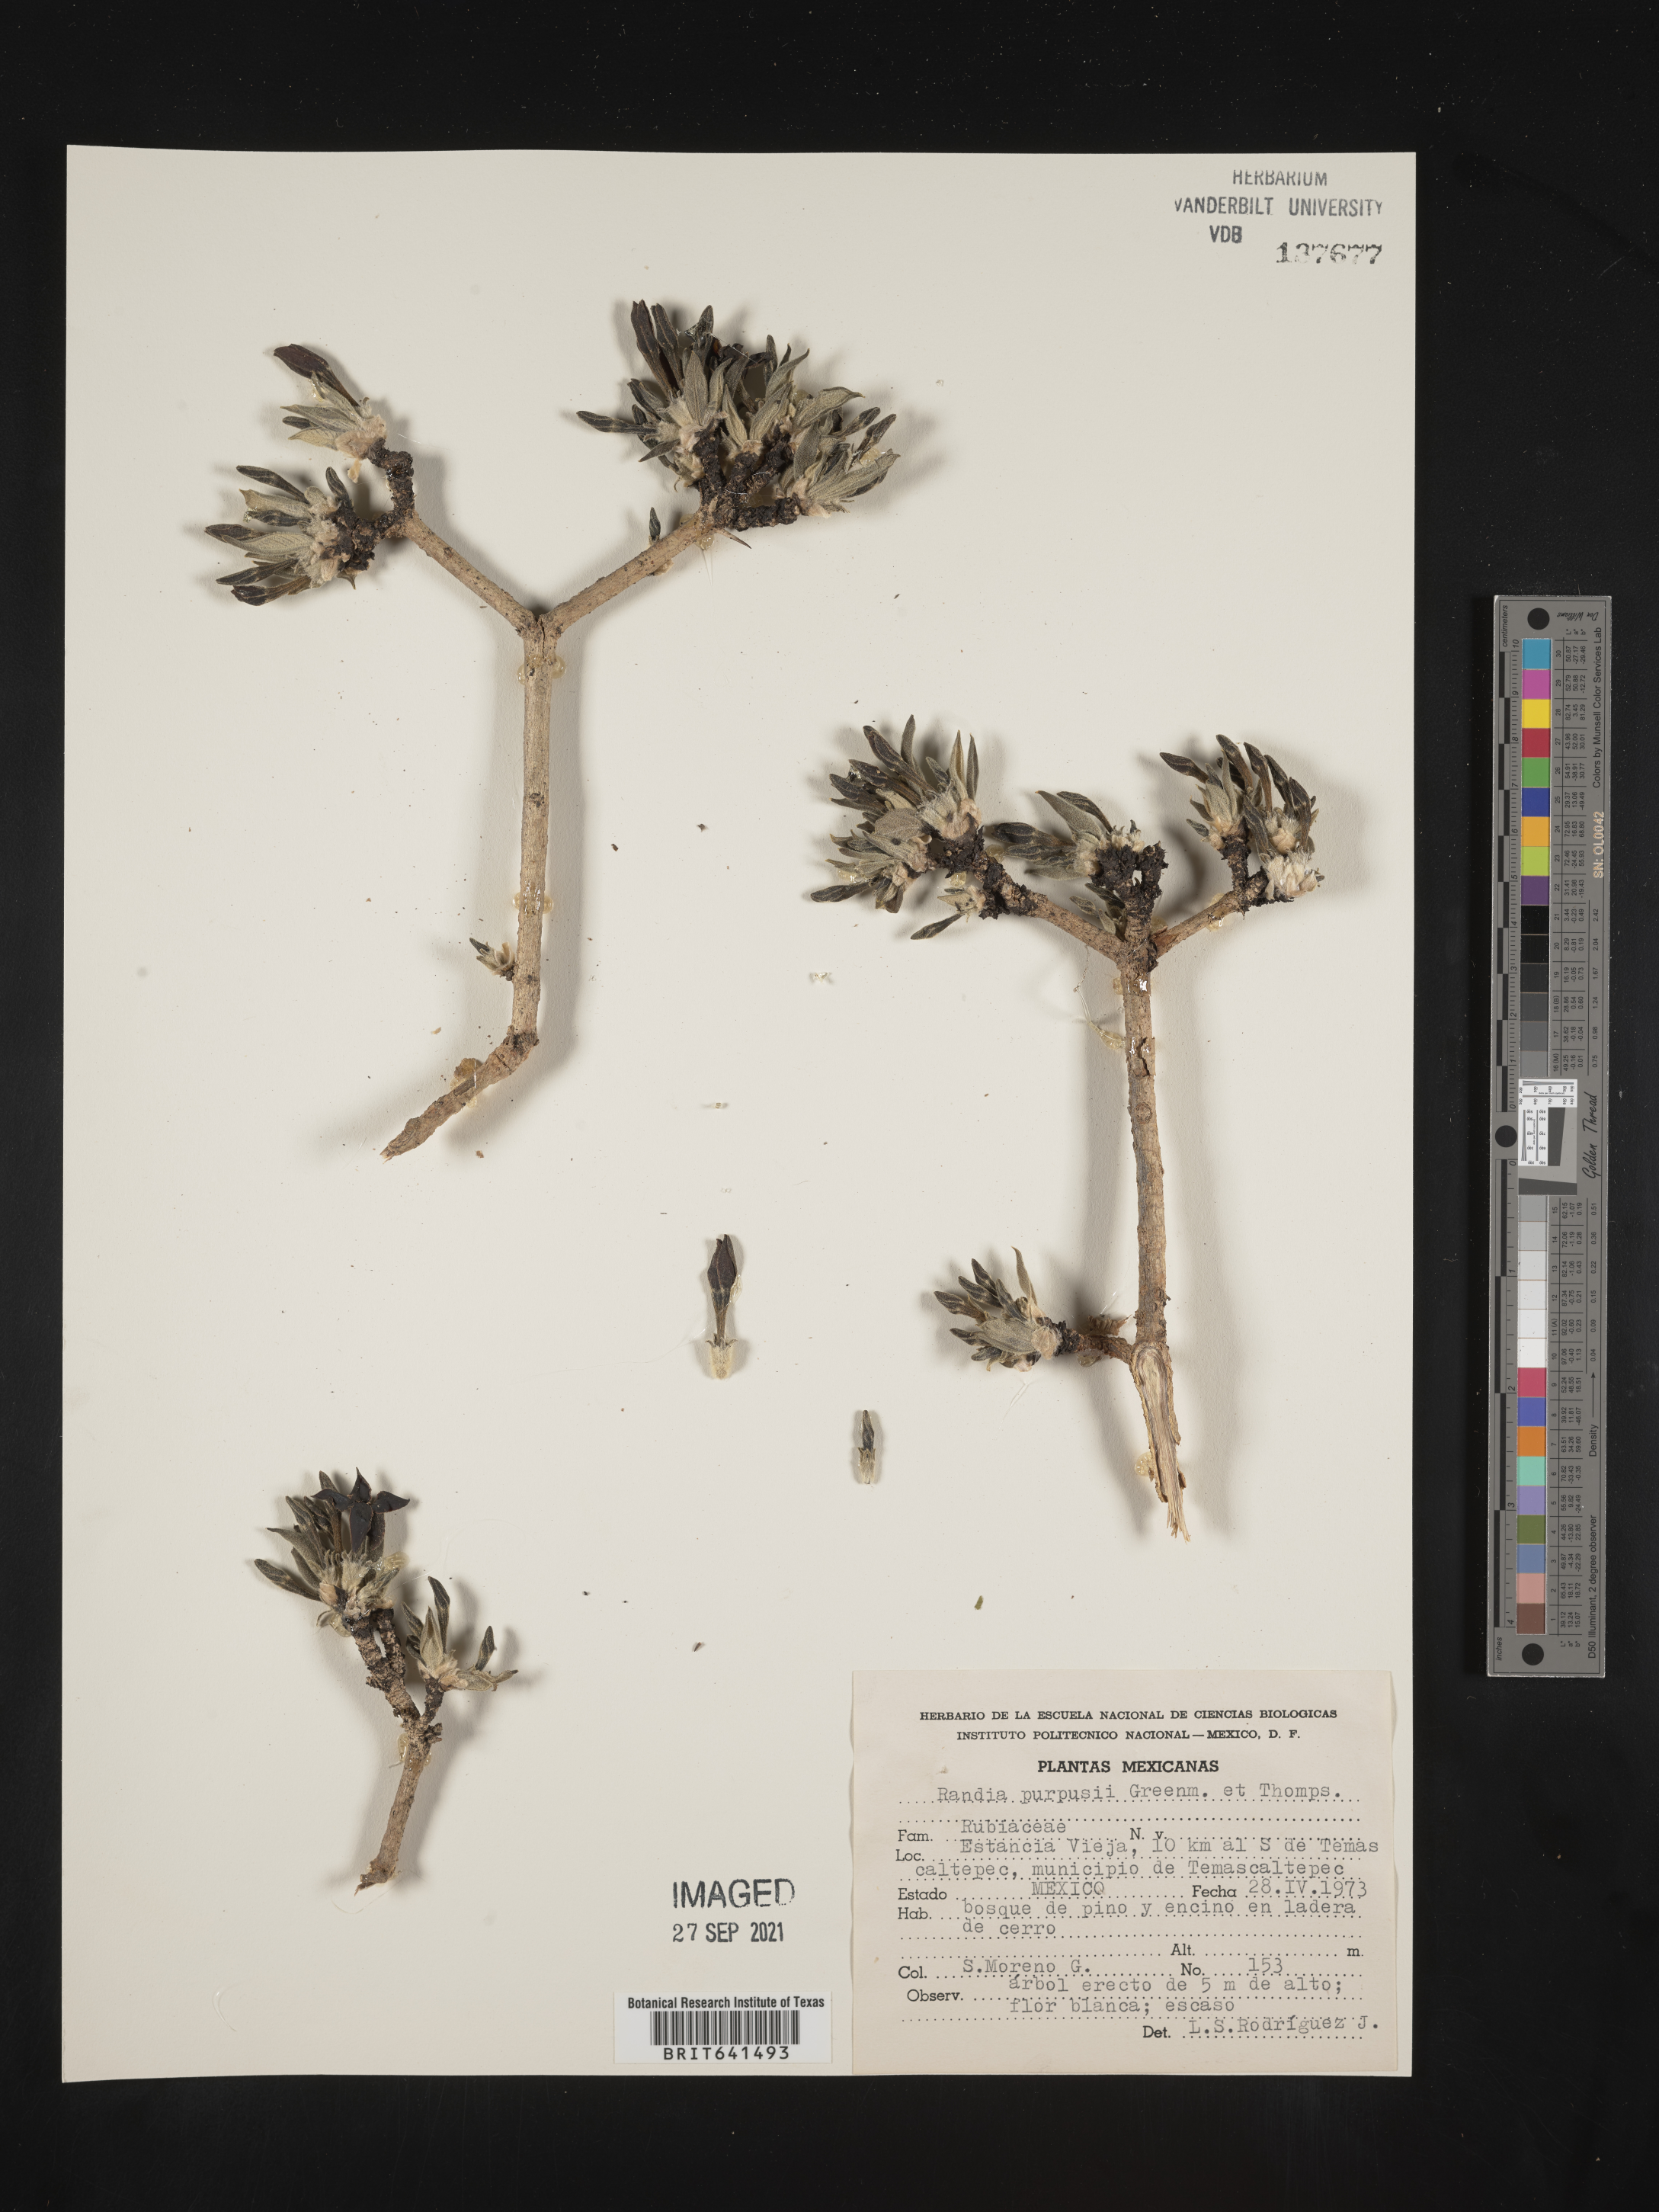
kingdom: Plantae
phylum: Tracheophyta
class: Magnoliopsida
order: Gentianales
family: Rubiaceae
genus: Randia
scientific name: Randia
